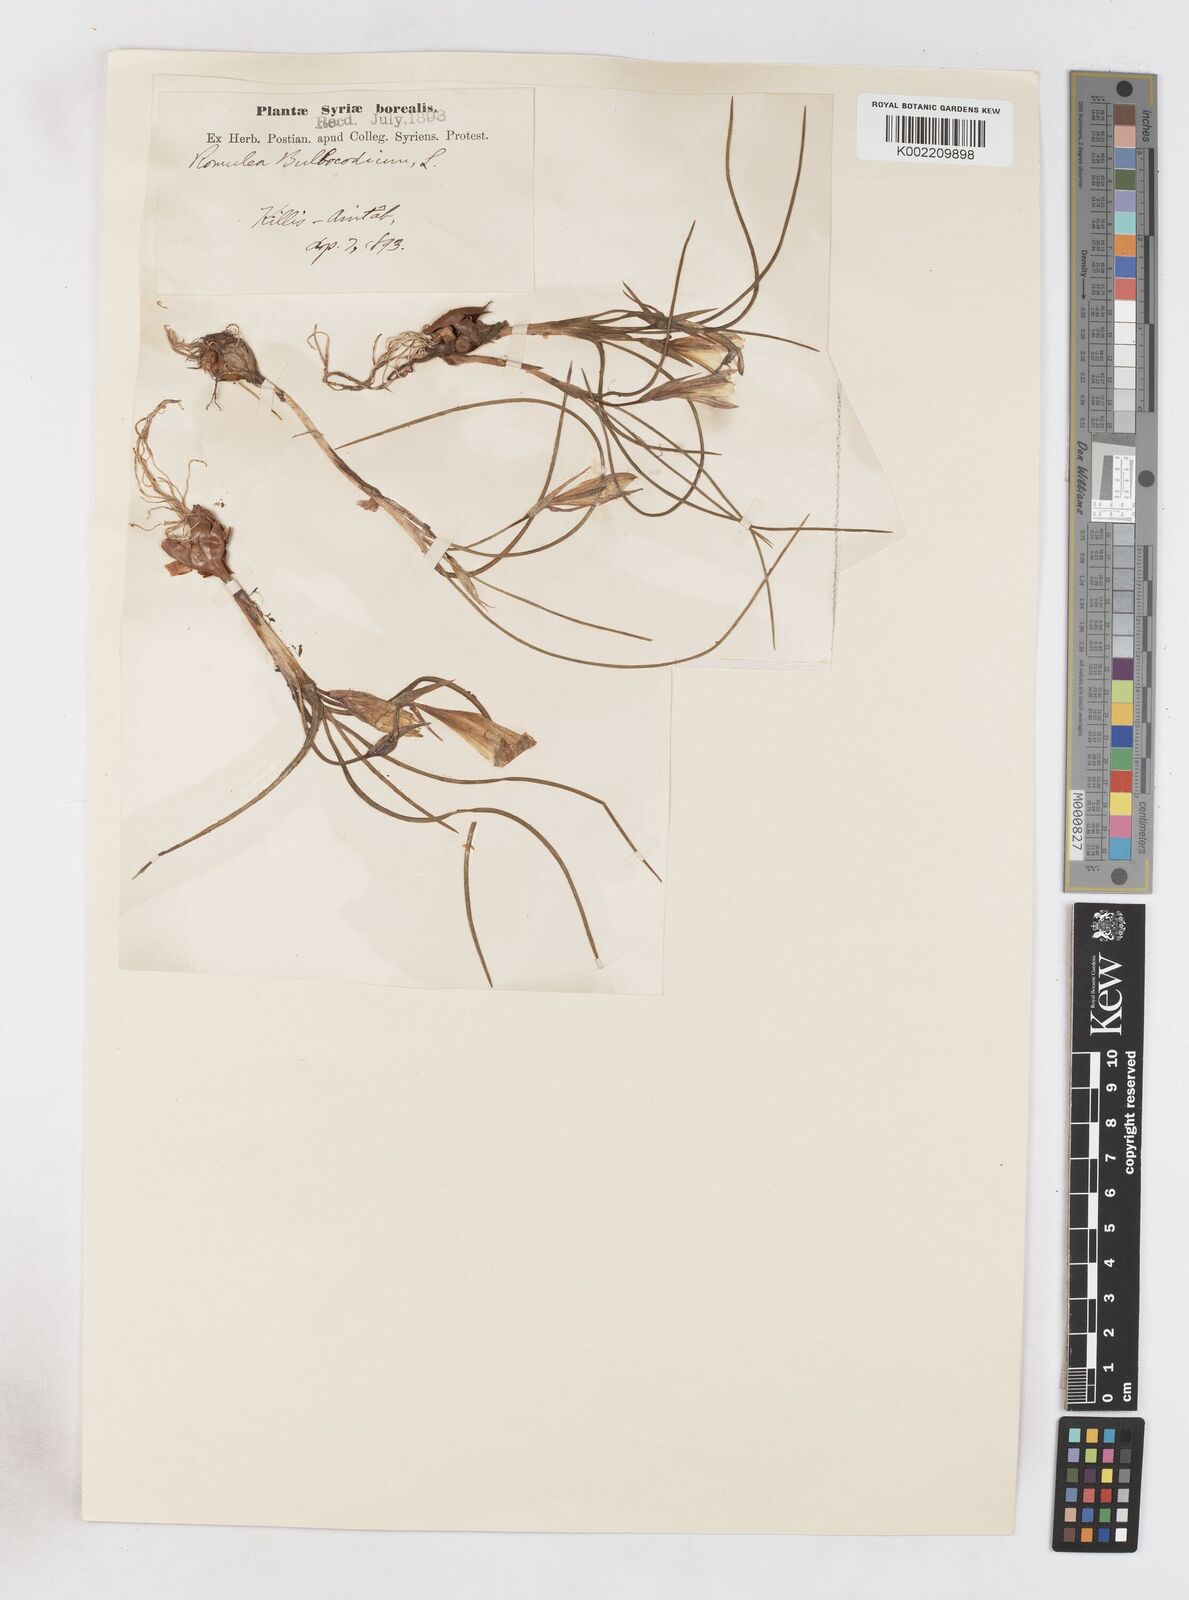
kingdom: Plantae
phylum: Tracheophyta
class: Liliopsida
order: Asparagales
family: Iridaceae
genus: Romulea
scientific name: Romulea bulbocodium
